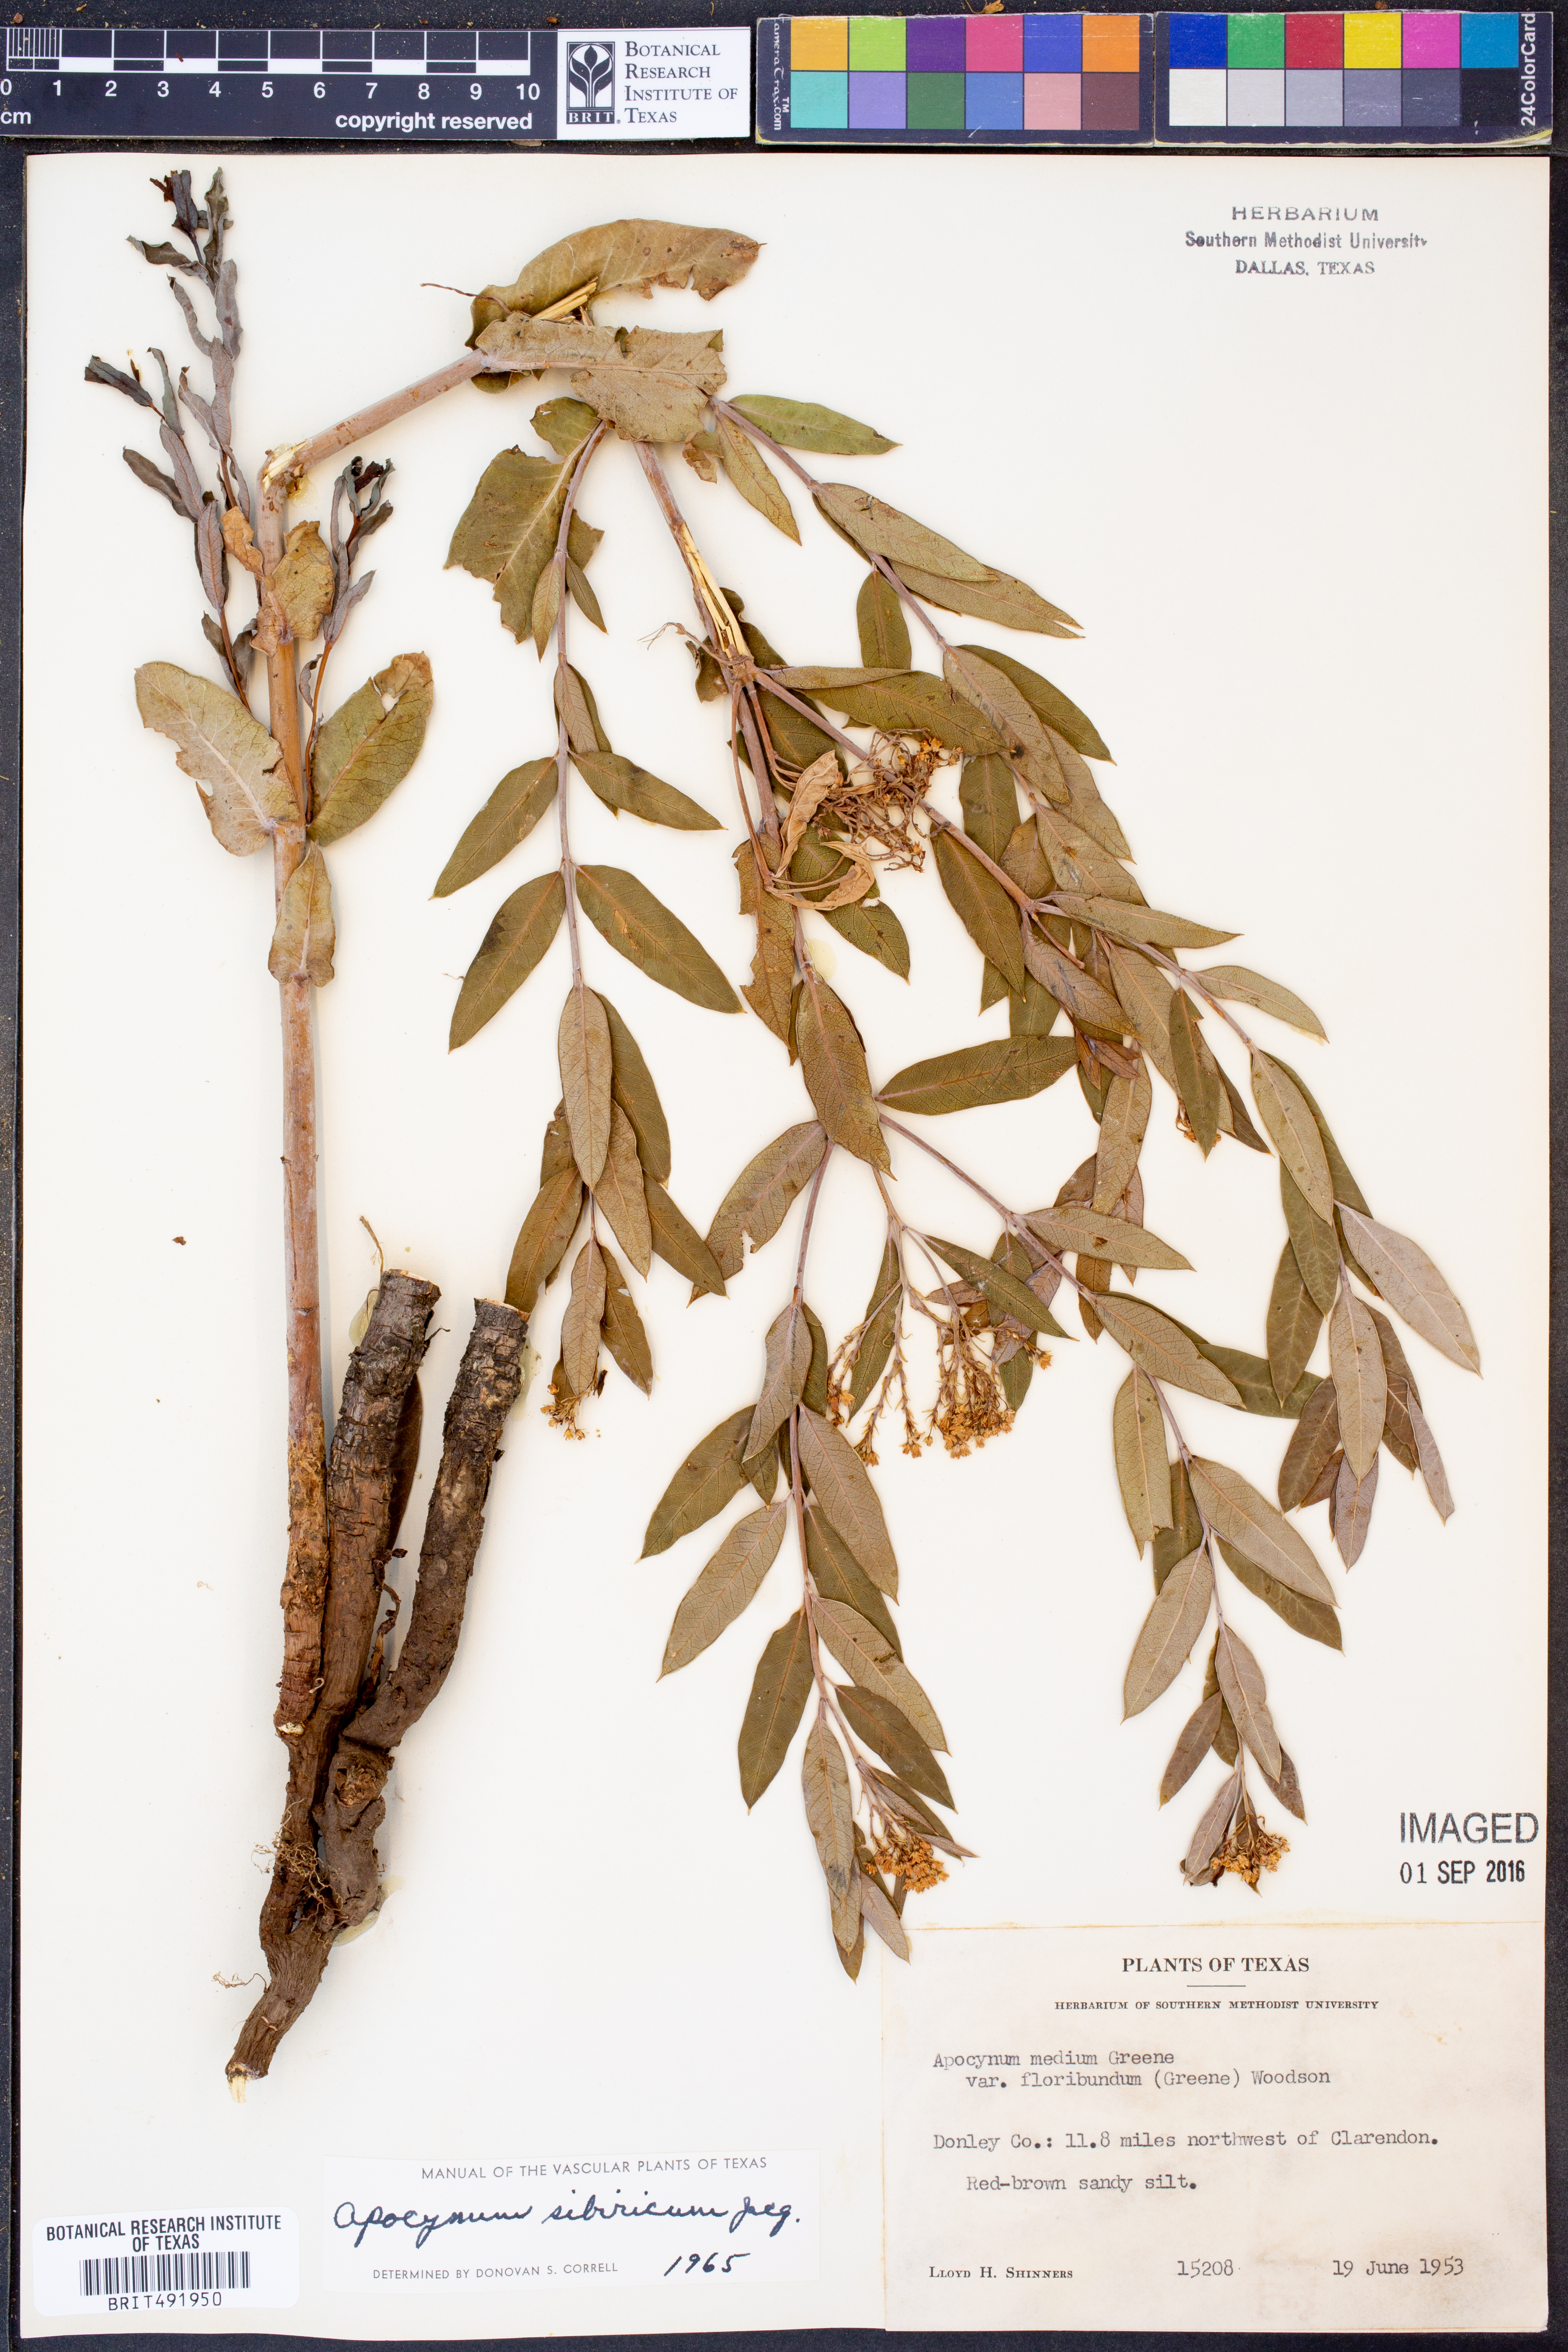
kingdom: Plantae
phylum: Tracheophyta
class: Magnoliopsida
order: Gentianales
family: Apocynaceae
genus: Apocynum
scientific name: Apocynum cannabinum
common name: Hemp dogbane
